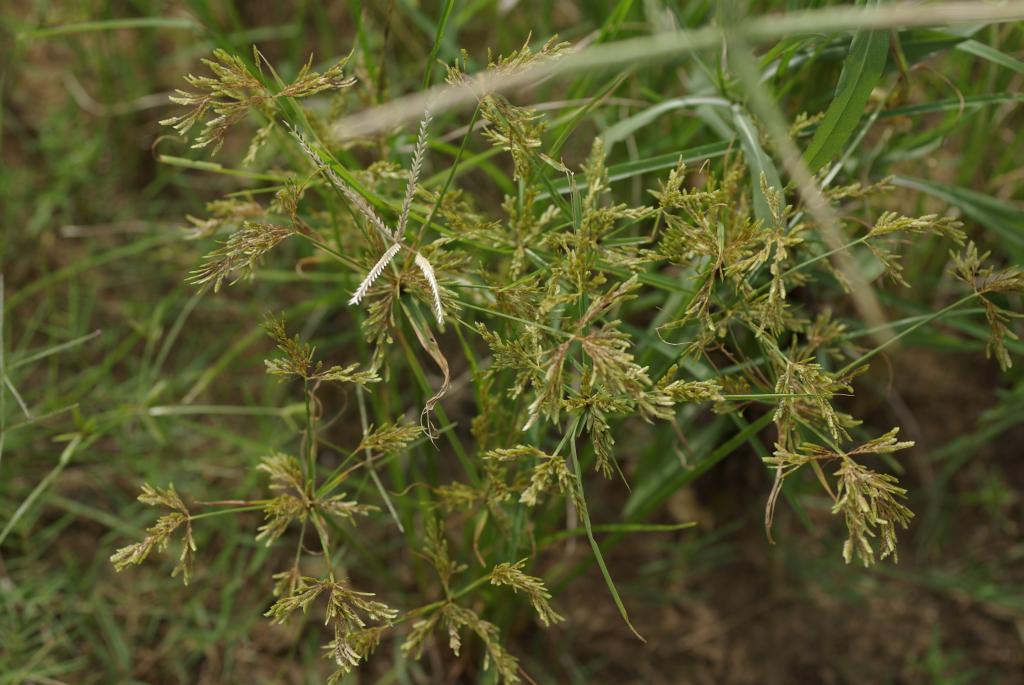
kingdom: Plantae
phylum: Tracheophyta
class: Liliopsida
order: Poales
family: Cyperaceae
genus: Cyperus
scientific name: Cyperus iria
